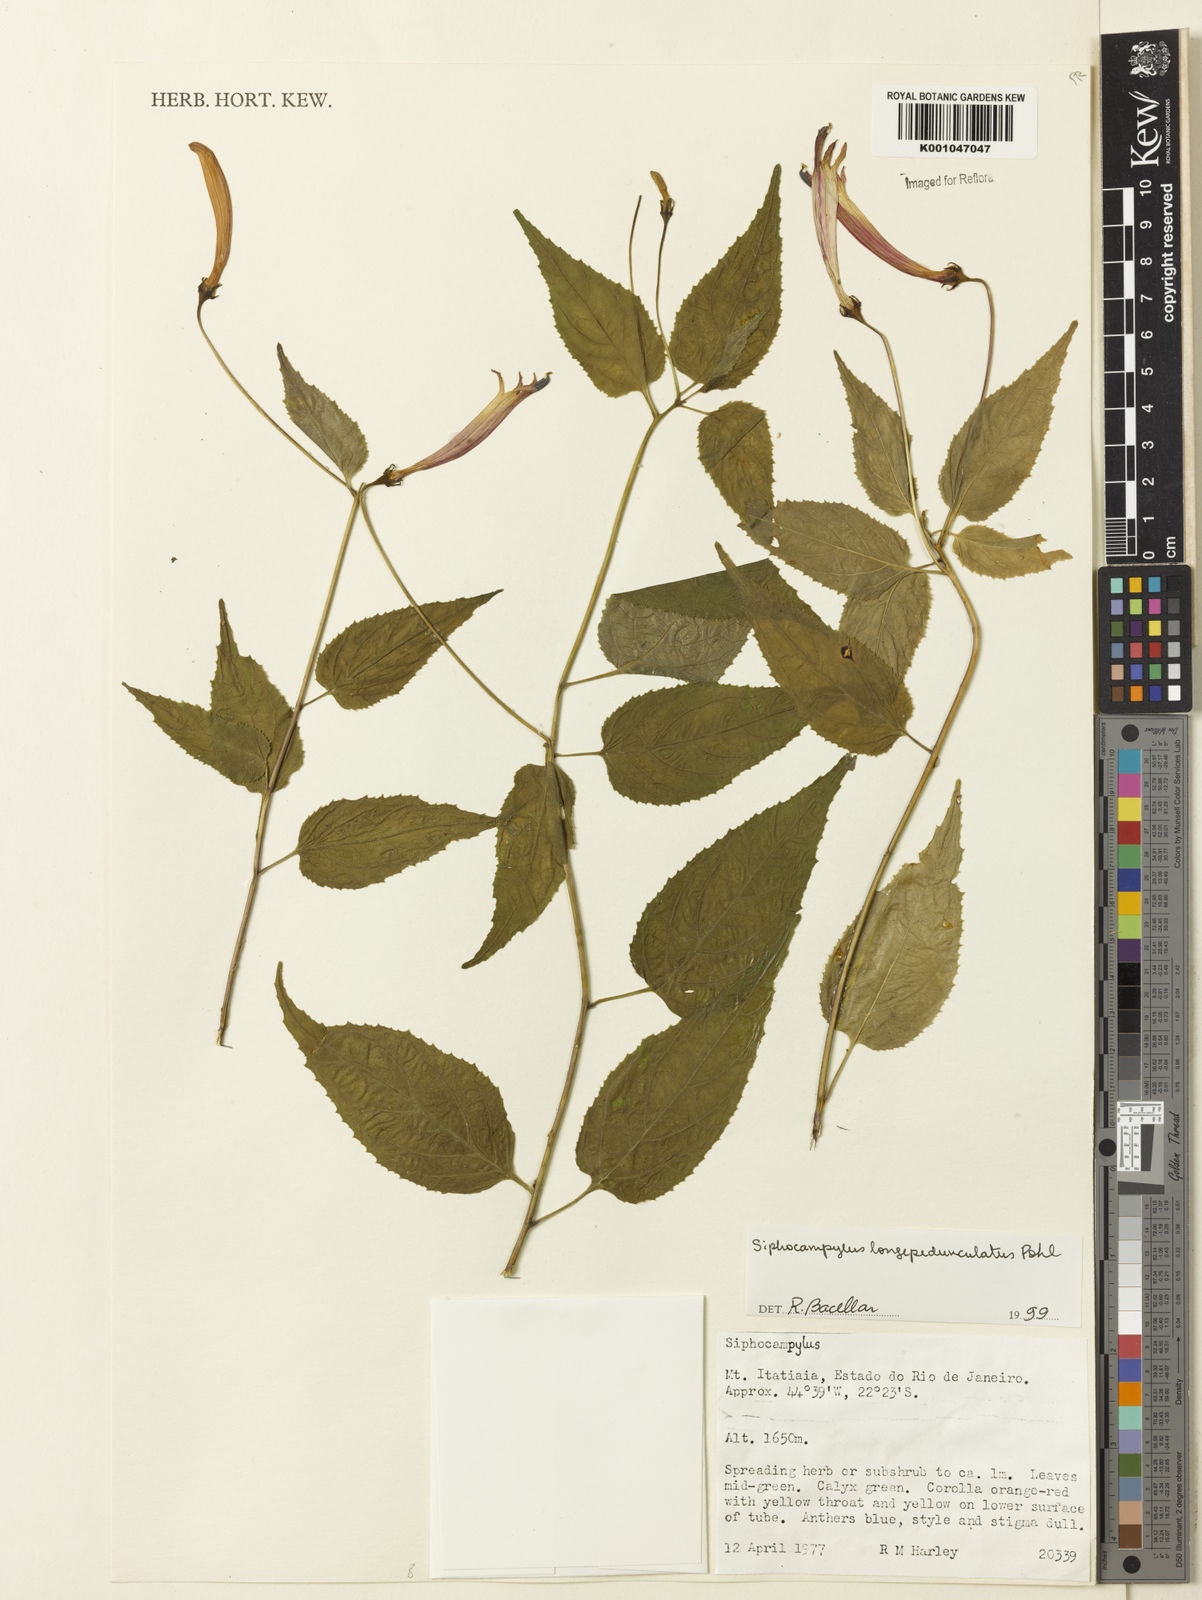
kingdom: Plantae
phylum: Tracheophyta
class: Magnoliopsida
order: Asterales
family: Campanulaceae
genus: Siphocampylus
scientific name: Siphocampylus longipedunculatus
